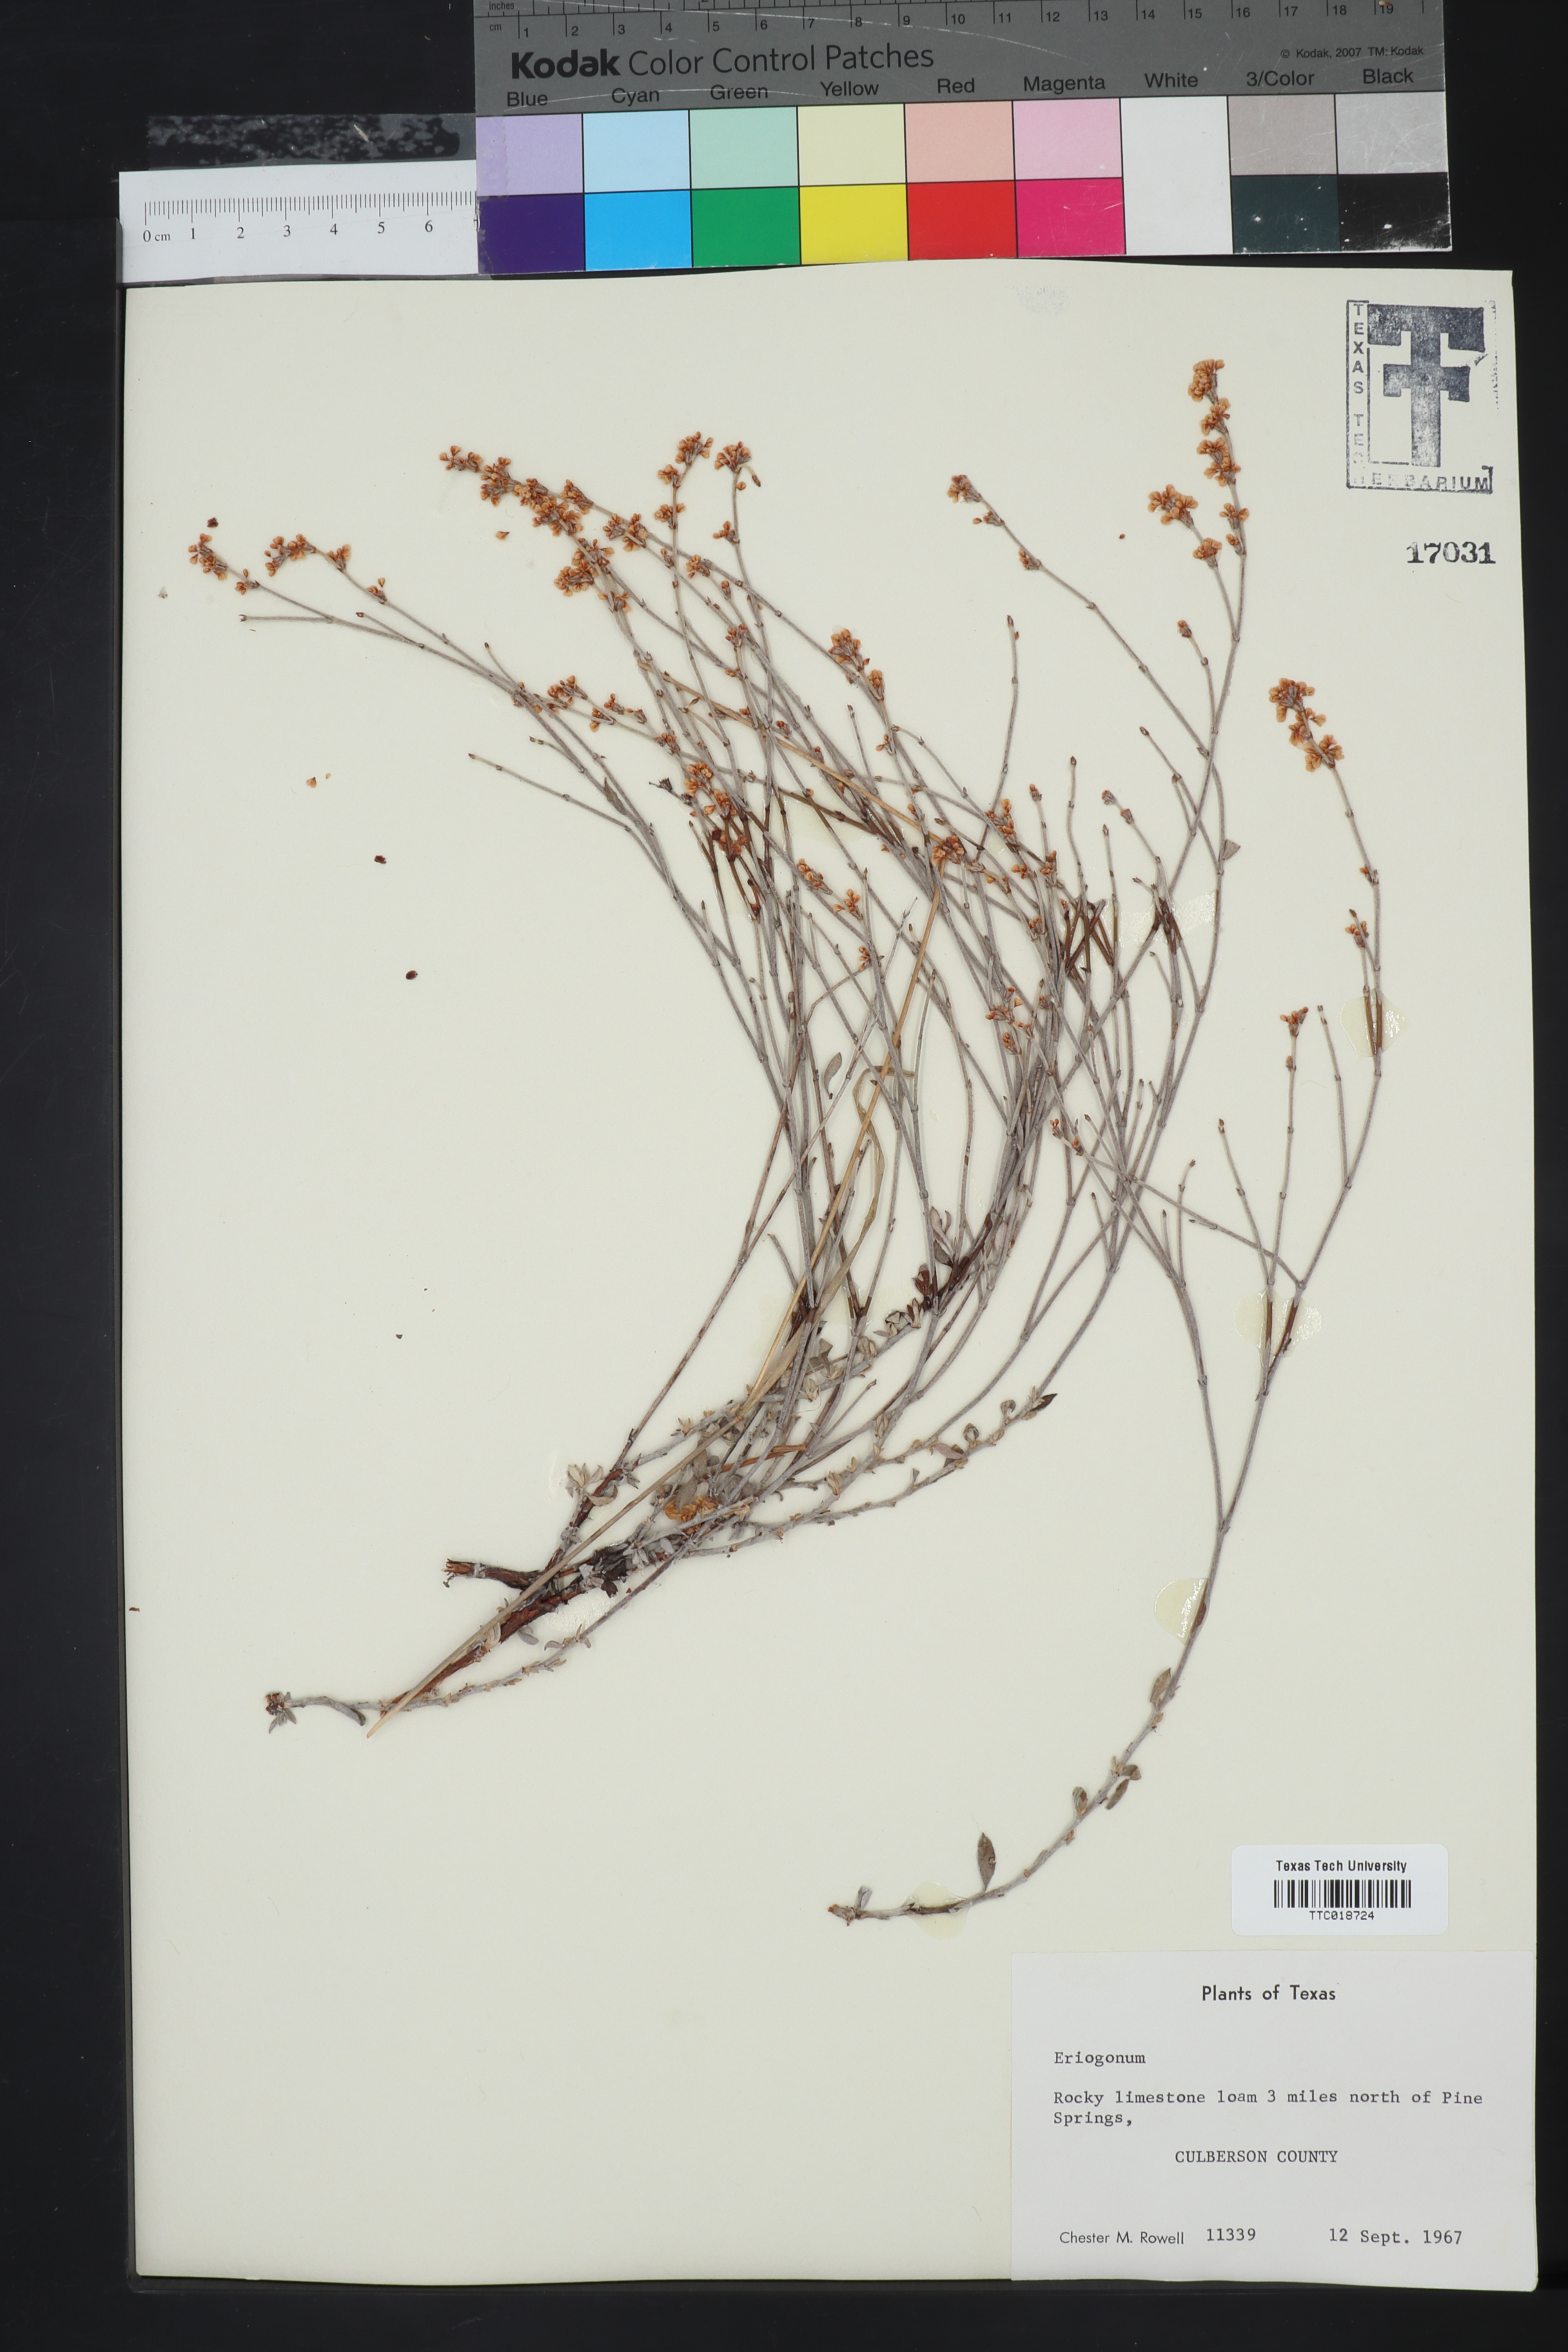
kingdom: Plantae
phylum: Tracheophyta
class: Magnoliopsida
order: Caryophyllales
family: Polygonaceae
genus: Eriogonum
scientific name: Eriogonum
